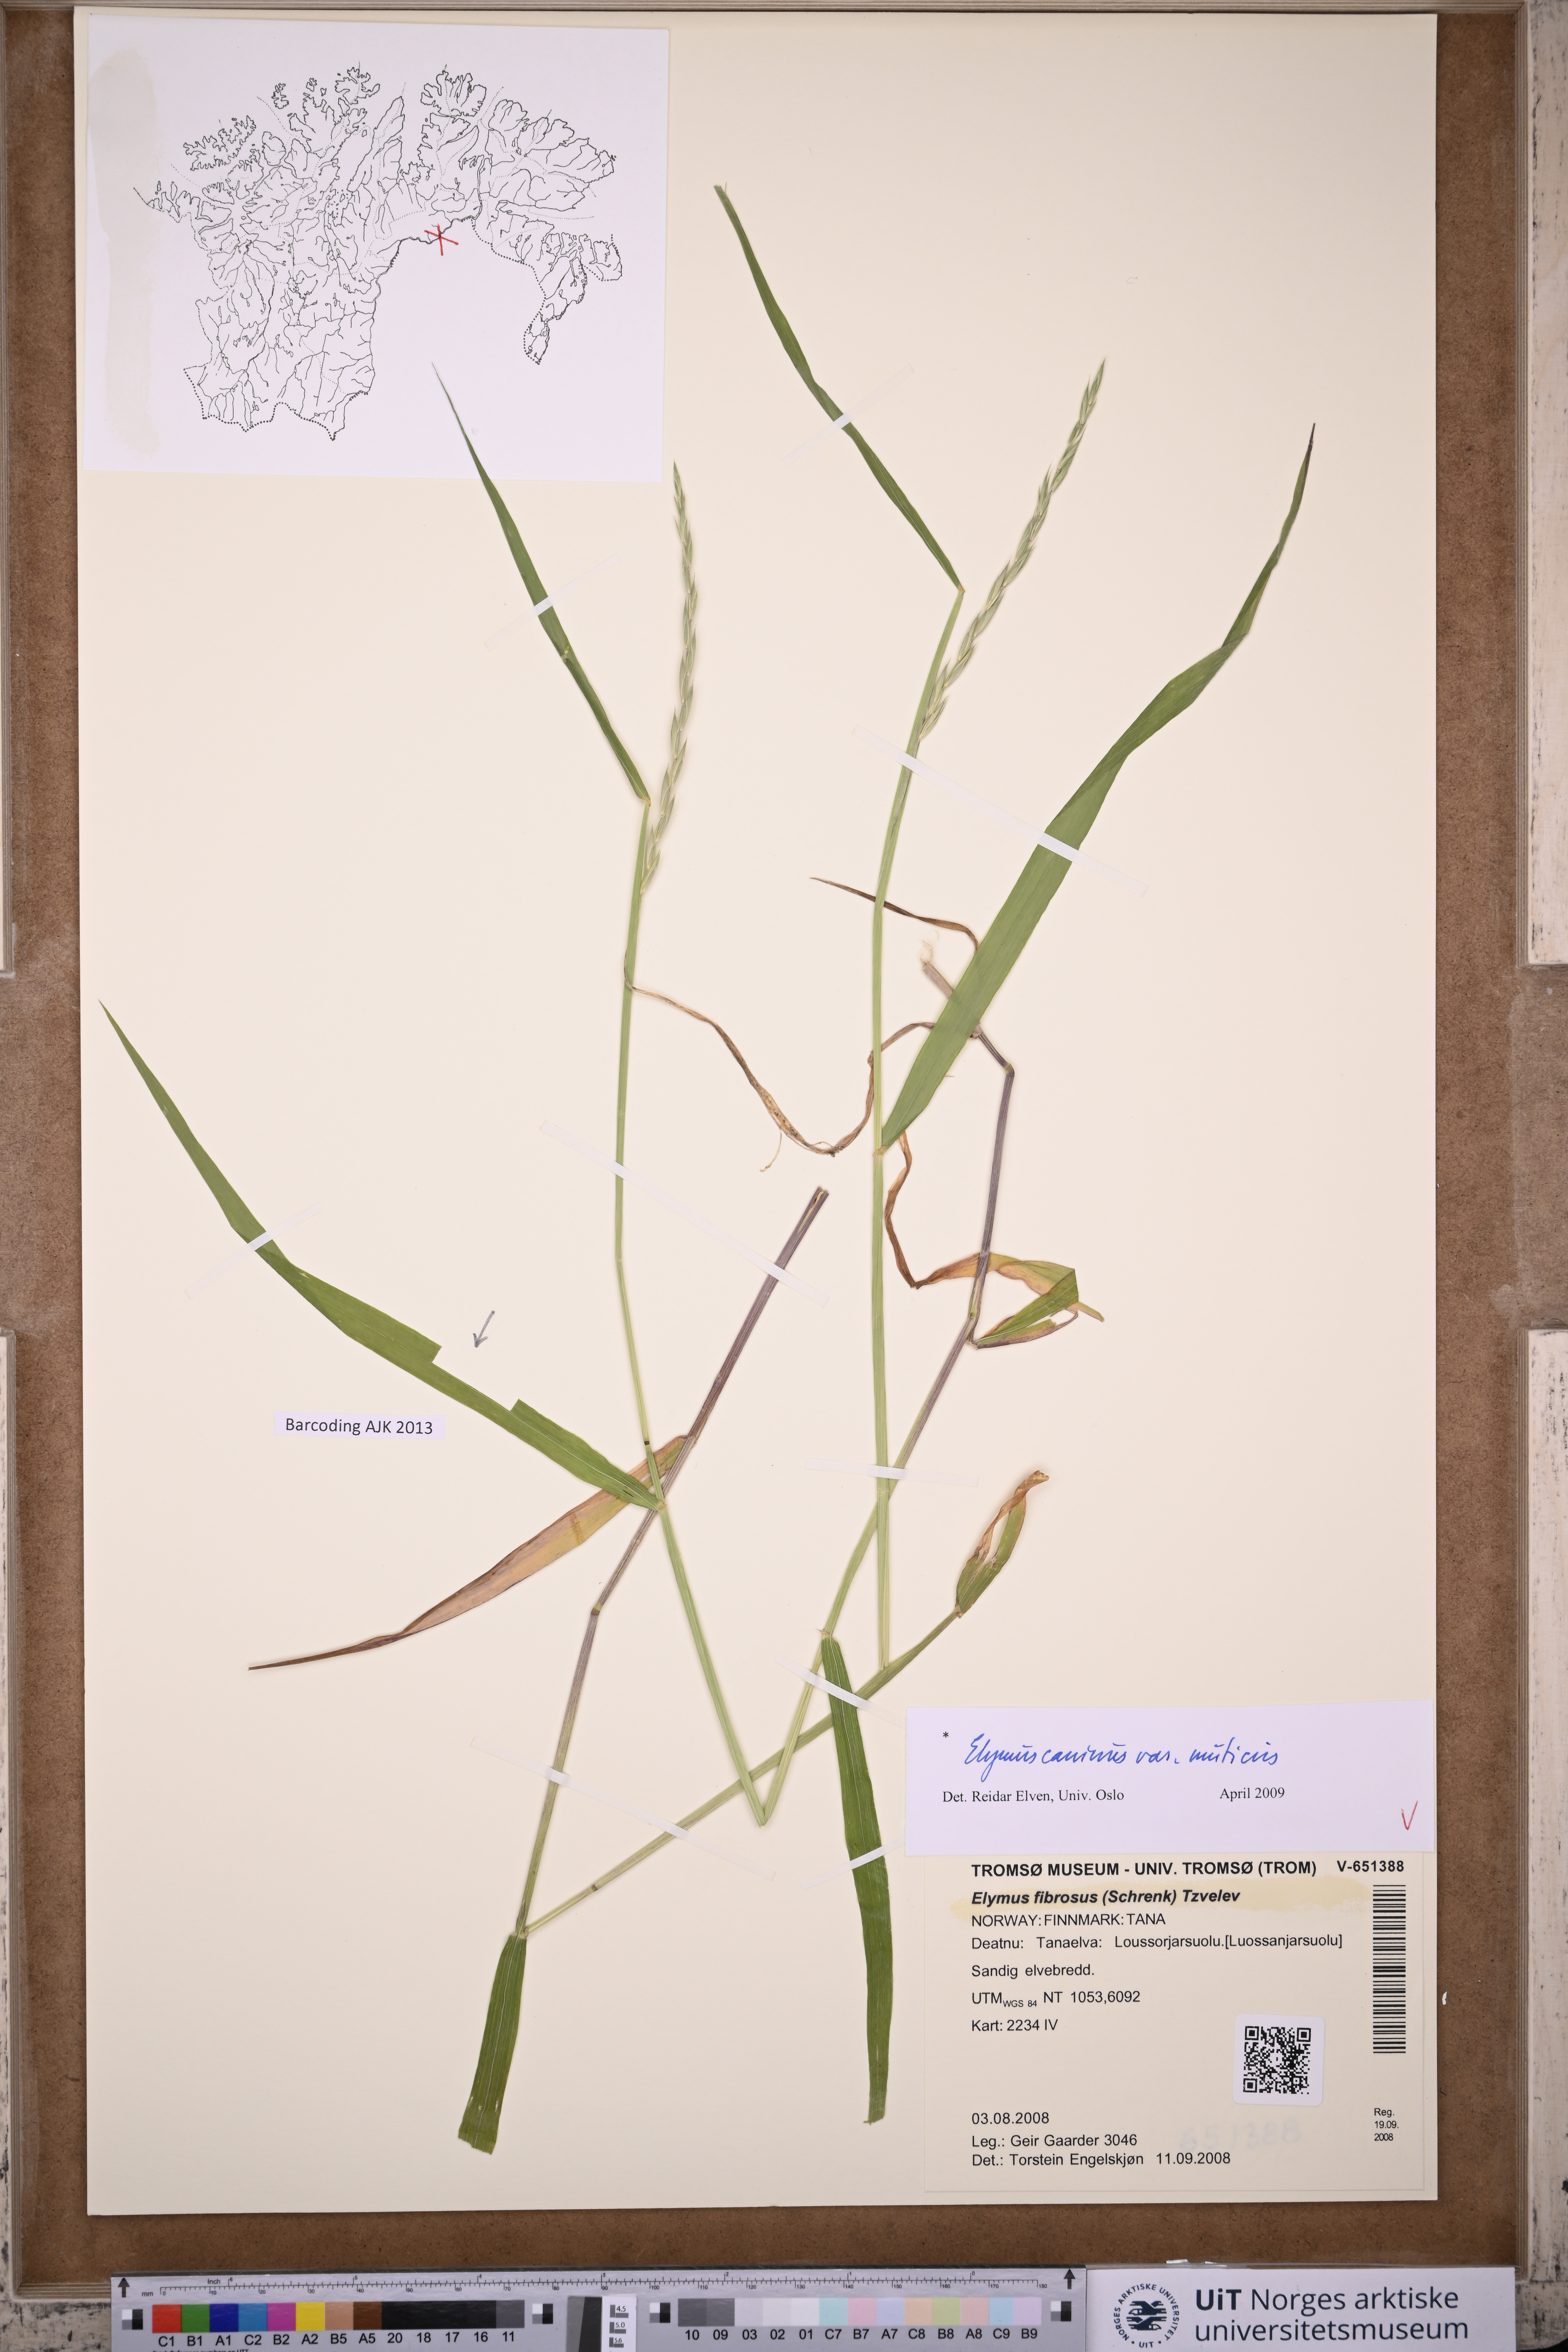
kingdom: Plantae
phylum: Tracheophyta
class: Liliopsida
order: Poales
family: Poaceae
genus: Elymus
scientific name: Elymus caninus
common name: Bearded couch
